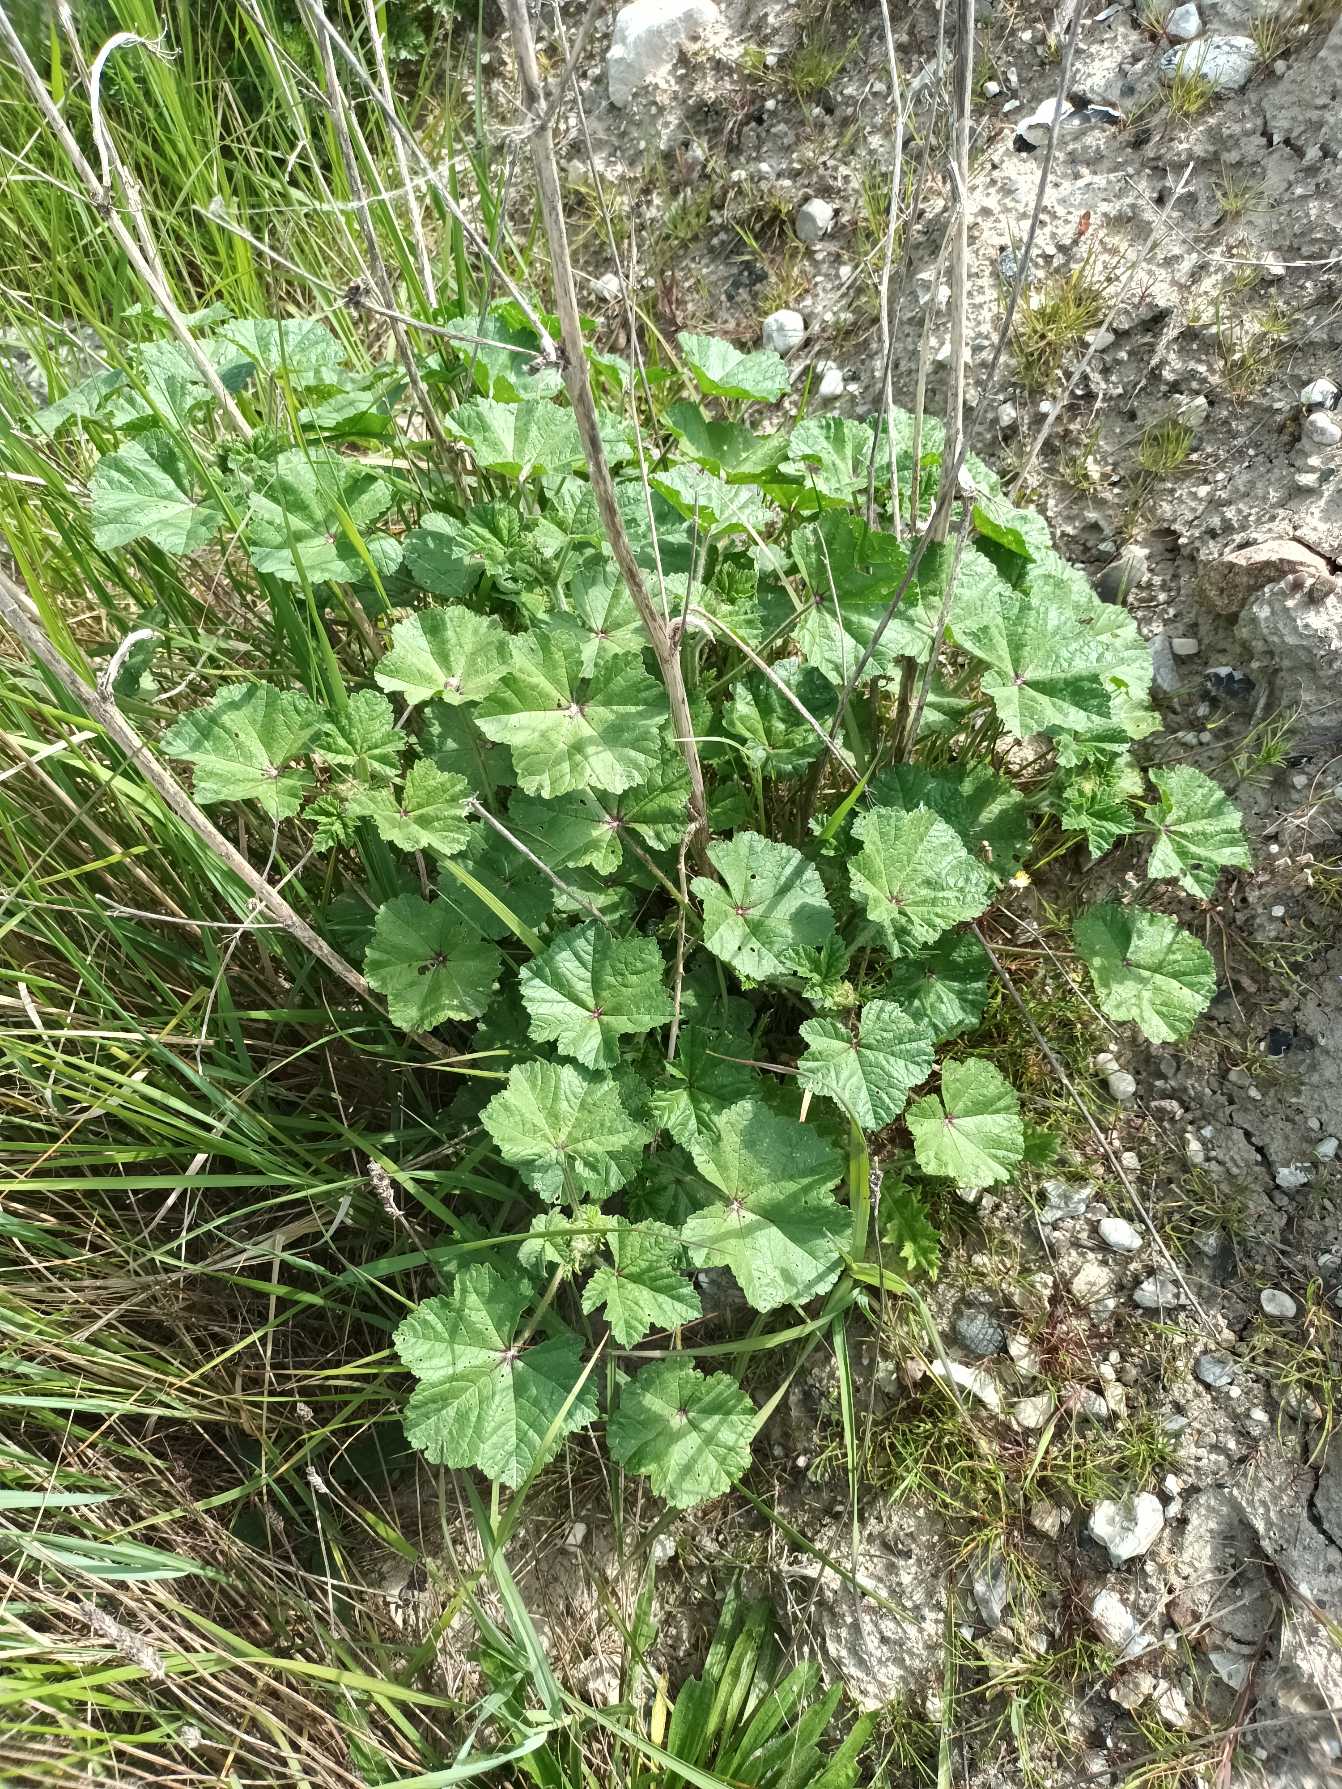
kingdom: Plantae
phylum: Tracheophyta
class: Magnoliopsida
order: Malvales
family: Malvaceae
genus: Malva
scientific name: Malva sylvestris
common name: Almindelig katost
